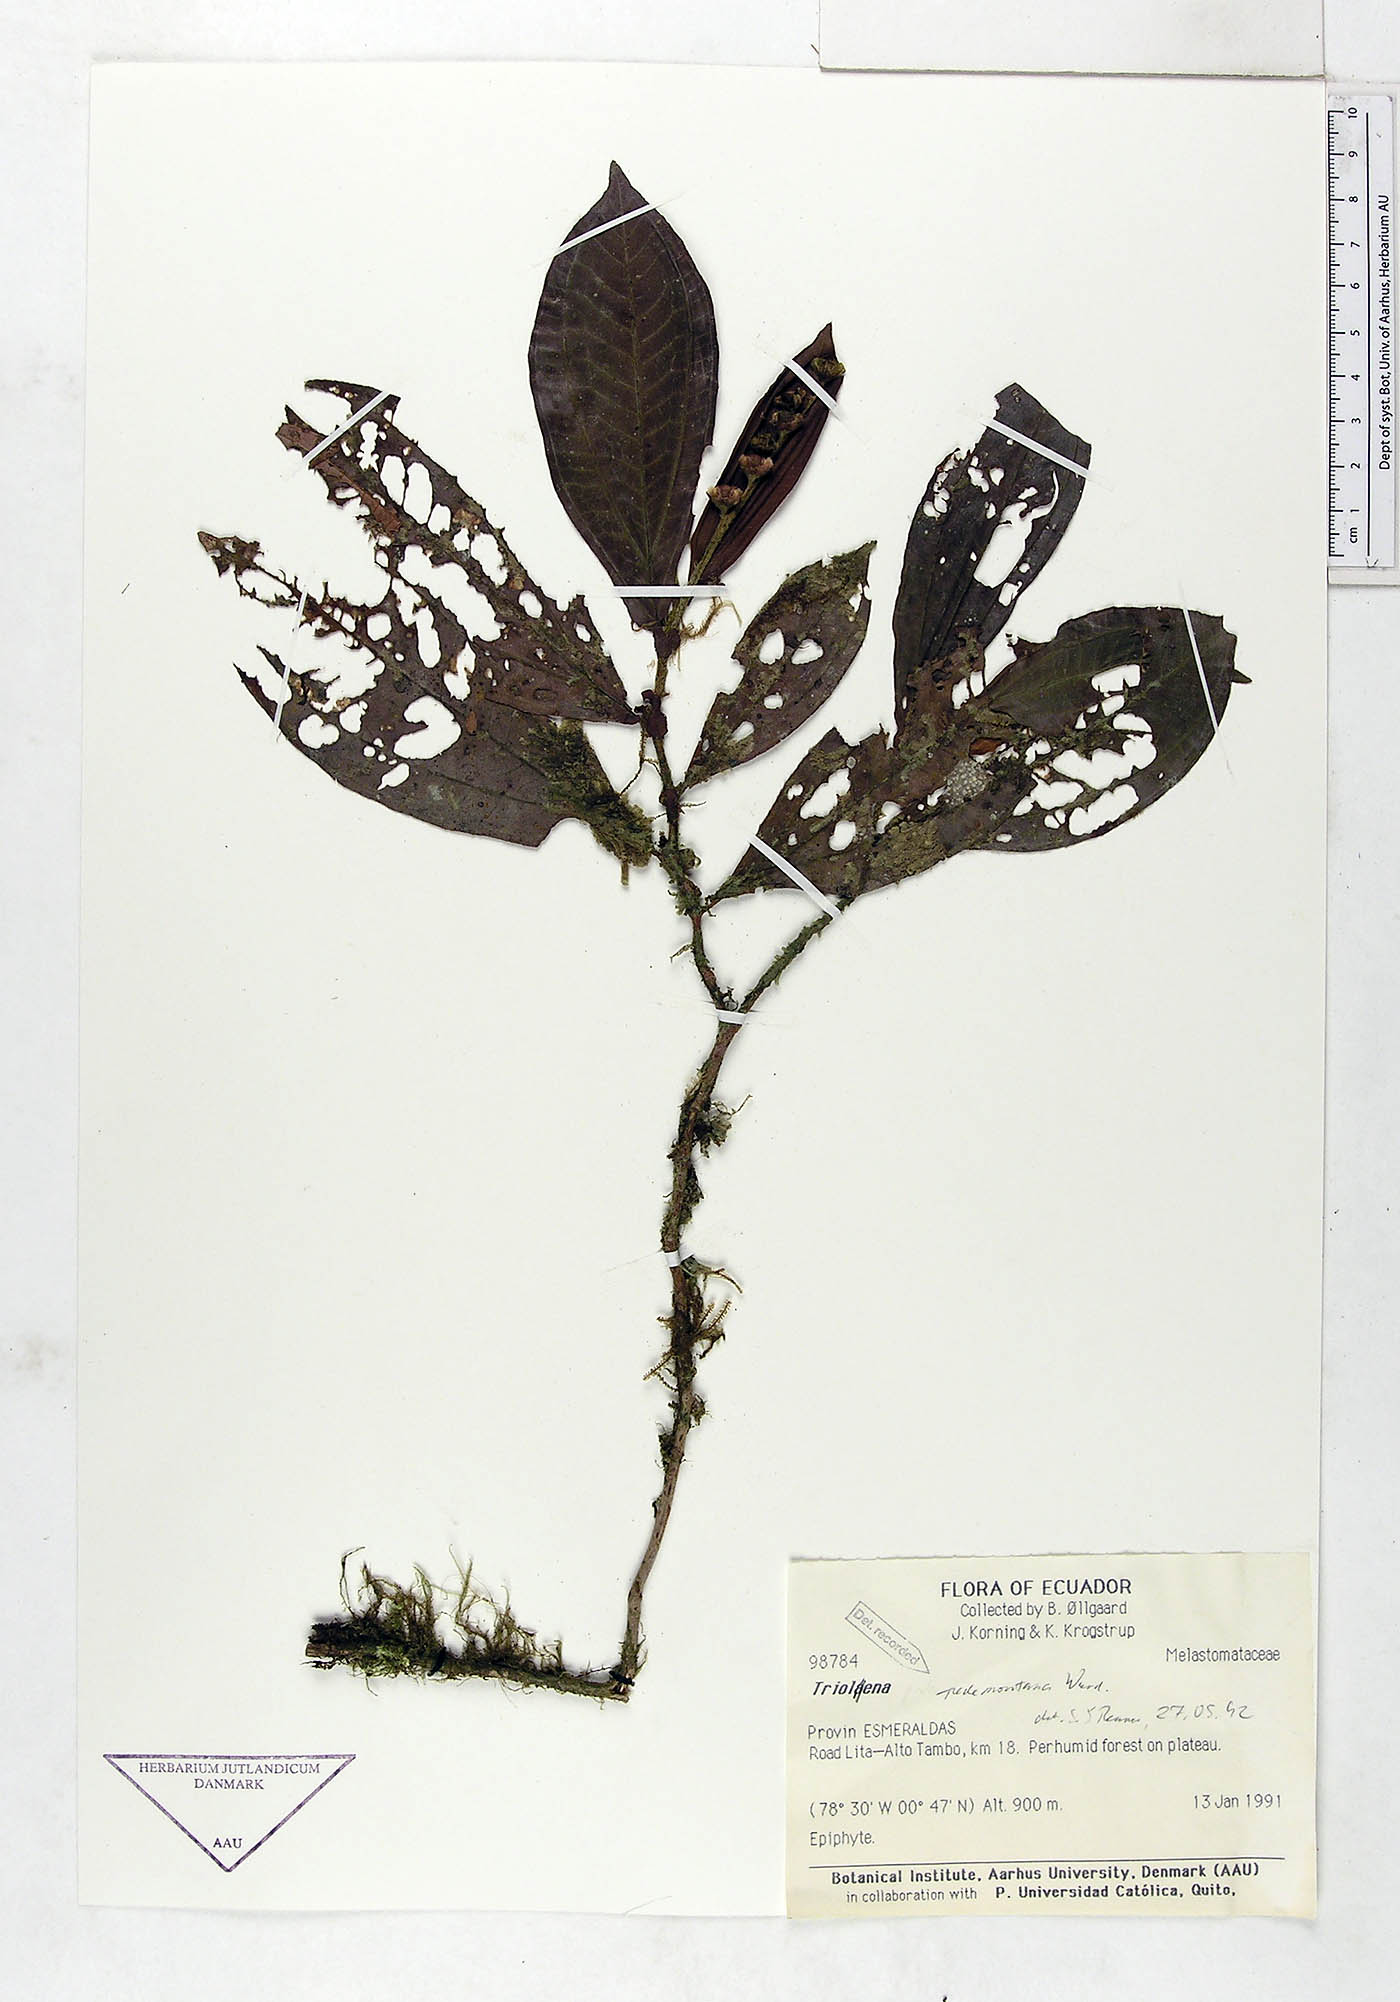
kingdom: Plantae
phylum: Tracheophyta
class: Magnoliopsida
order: Myrtales
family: Melastomataceae
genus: Triolena
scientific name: Triolena pedemontana
